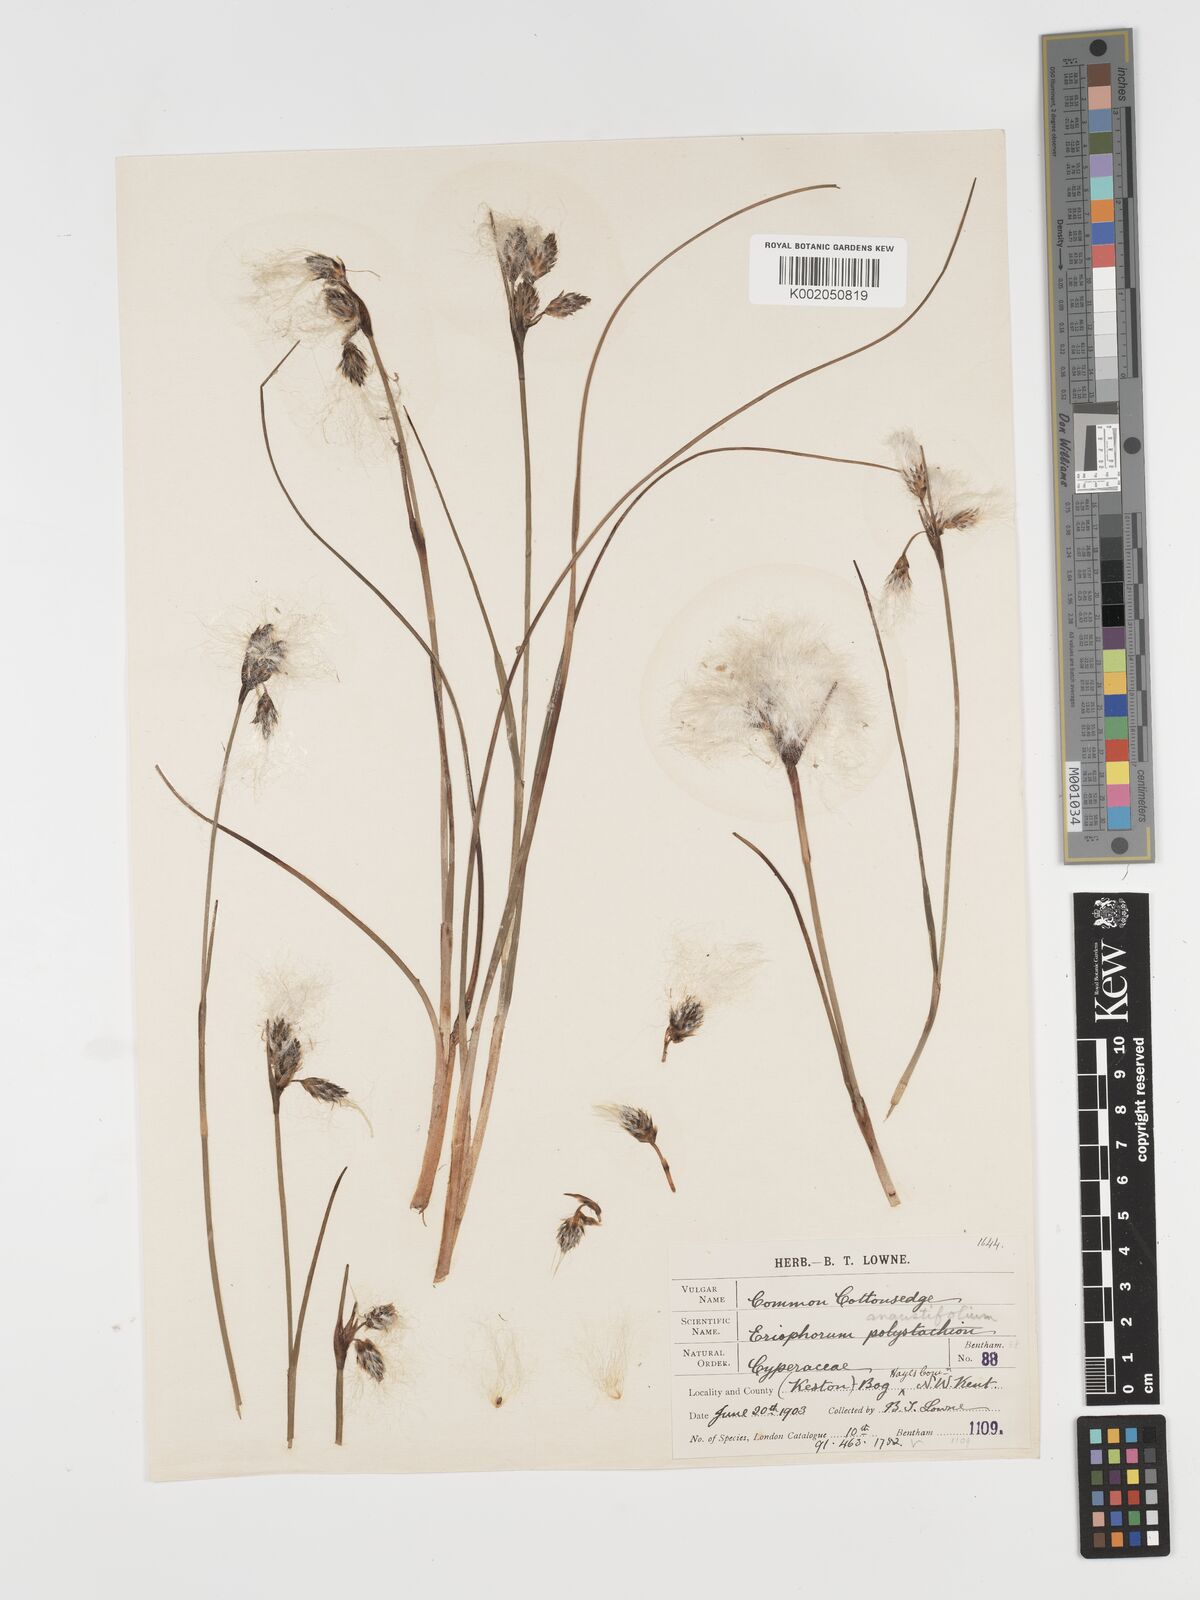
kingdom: Plantae
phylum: Tracheophyta
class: Liliopsida
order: Poales
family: Cyperaceae
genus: Eriophorum
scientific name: Eriophorum angustifolium
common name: Common cottongrass
